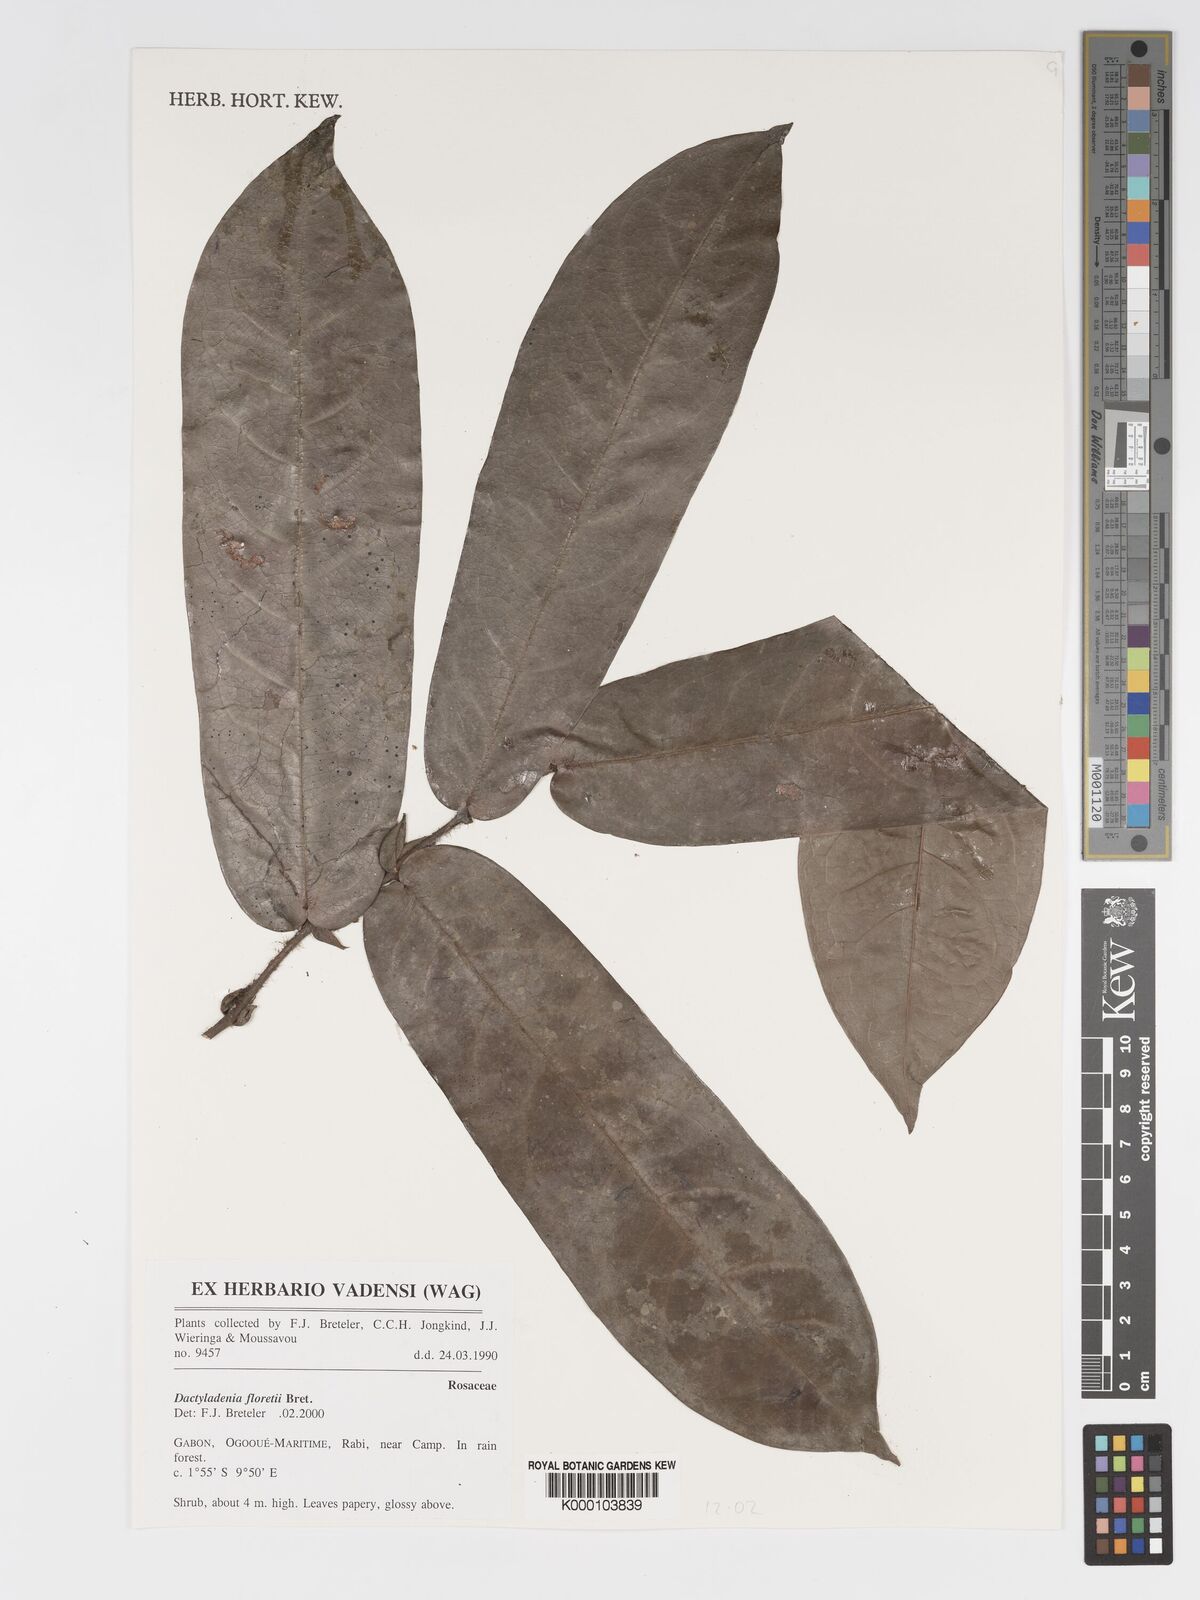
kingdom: Plantae
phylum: Tracheophyta
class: Magnoliopsida
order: Malpighiales
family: Chrysobalanaceae
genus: Dactyladenia
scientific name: Dactyladenia floretii
